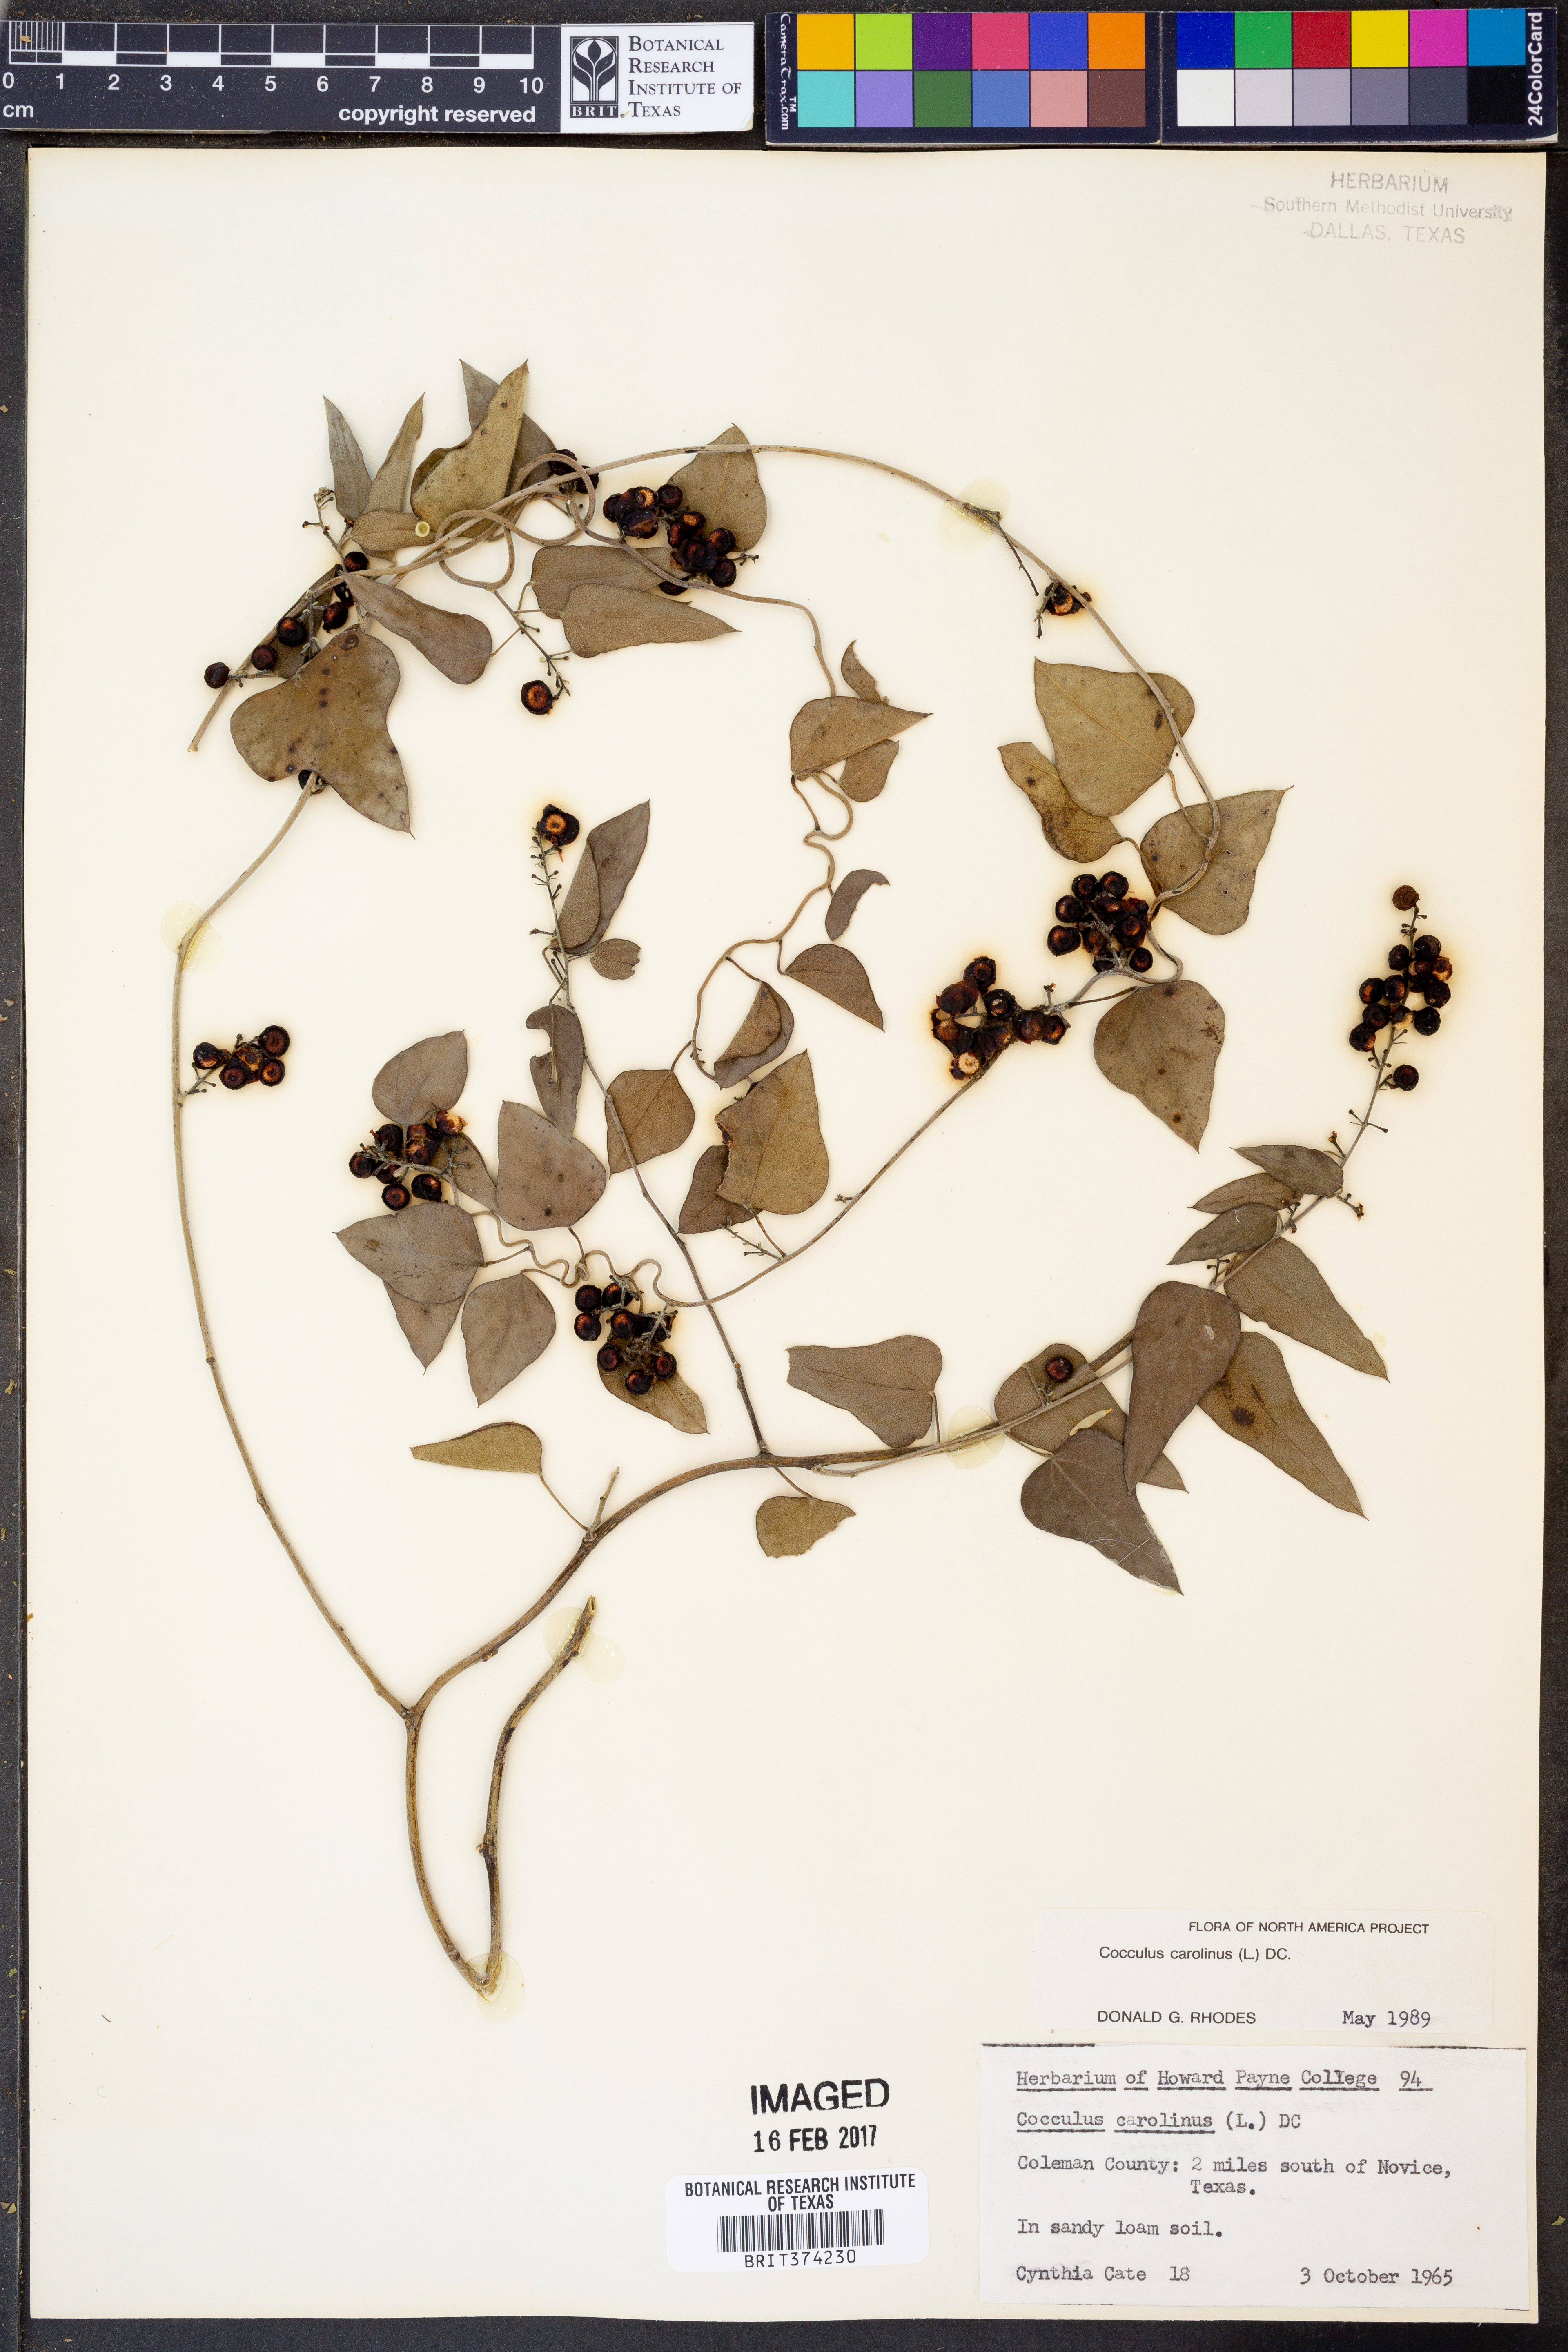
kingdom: Plantae
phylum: Tracheophyta
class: Magnoliopsida
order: Ranunculales
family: Menispermaceae
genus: Cocculus
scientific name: Cocculus carolinus
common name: Carolina moonseed
